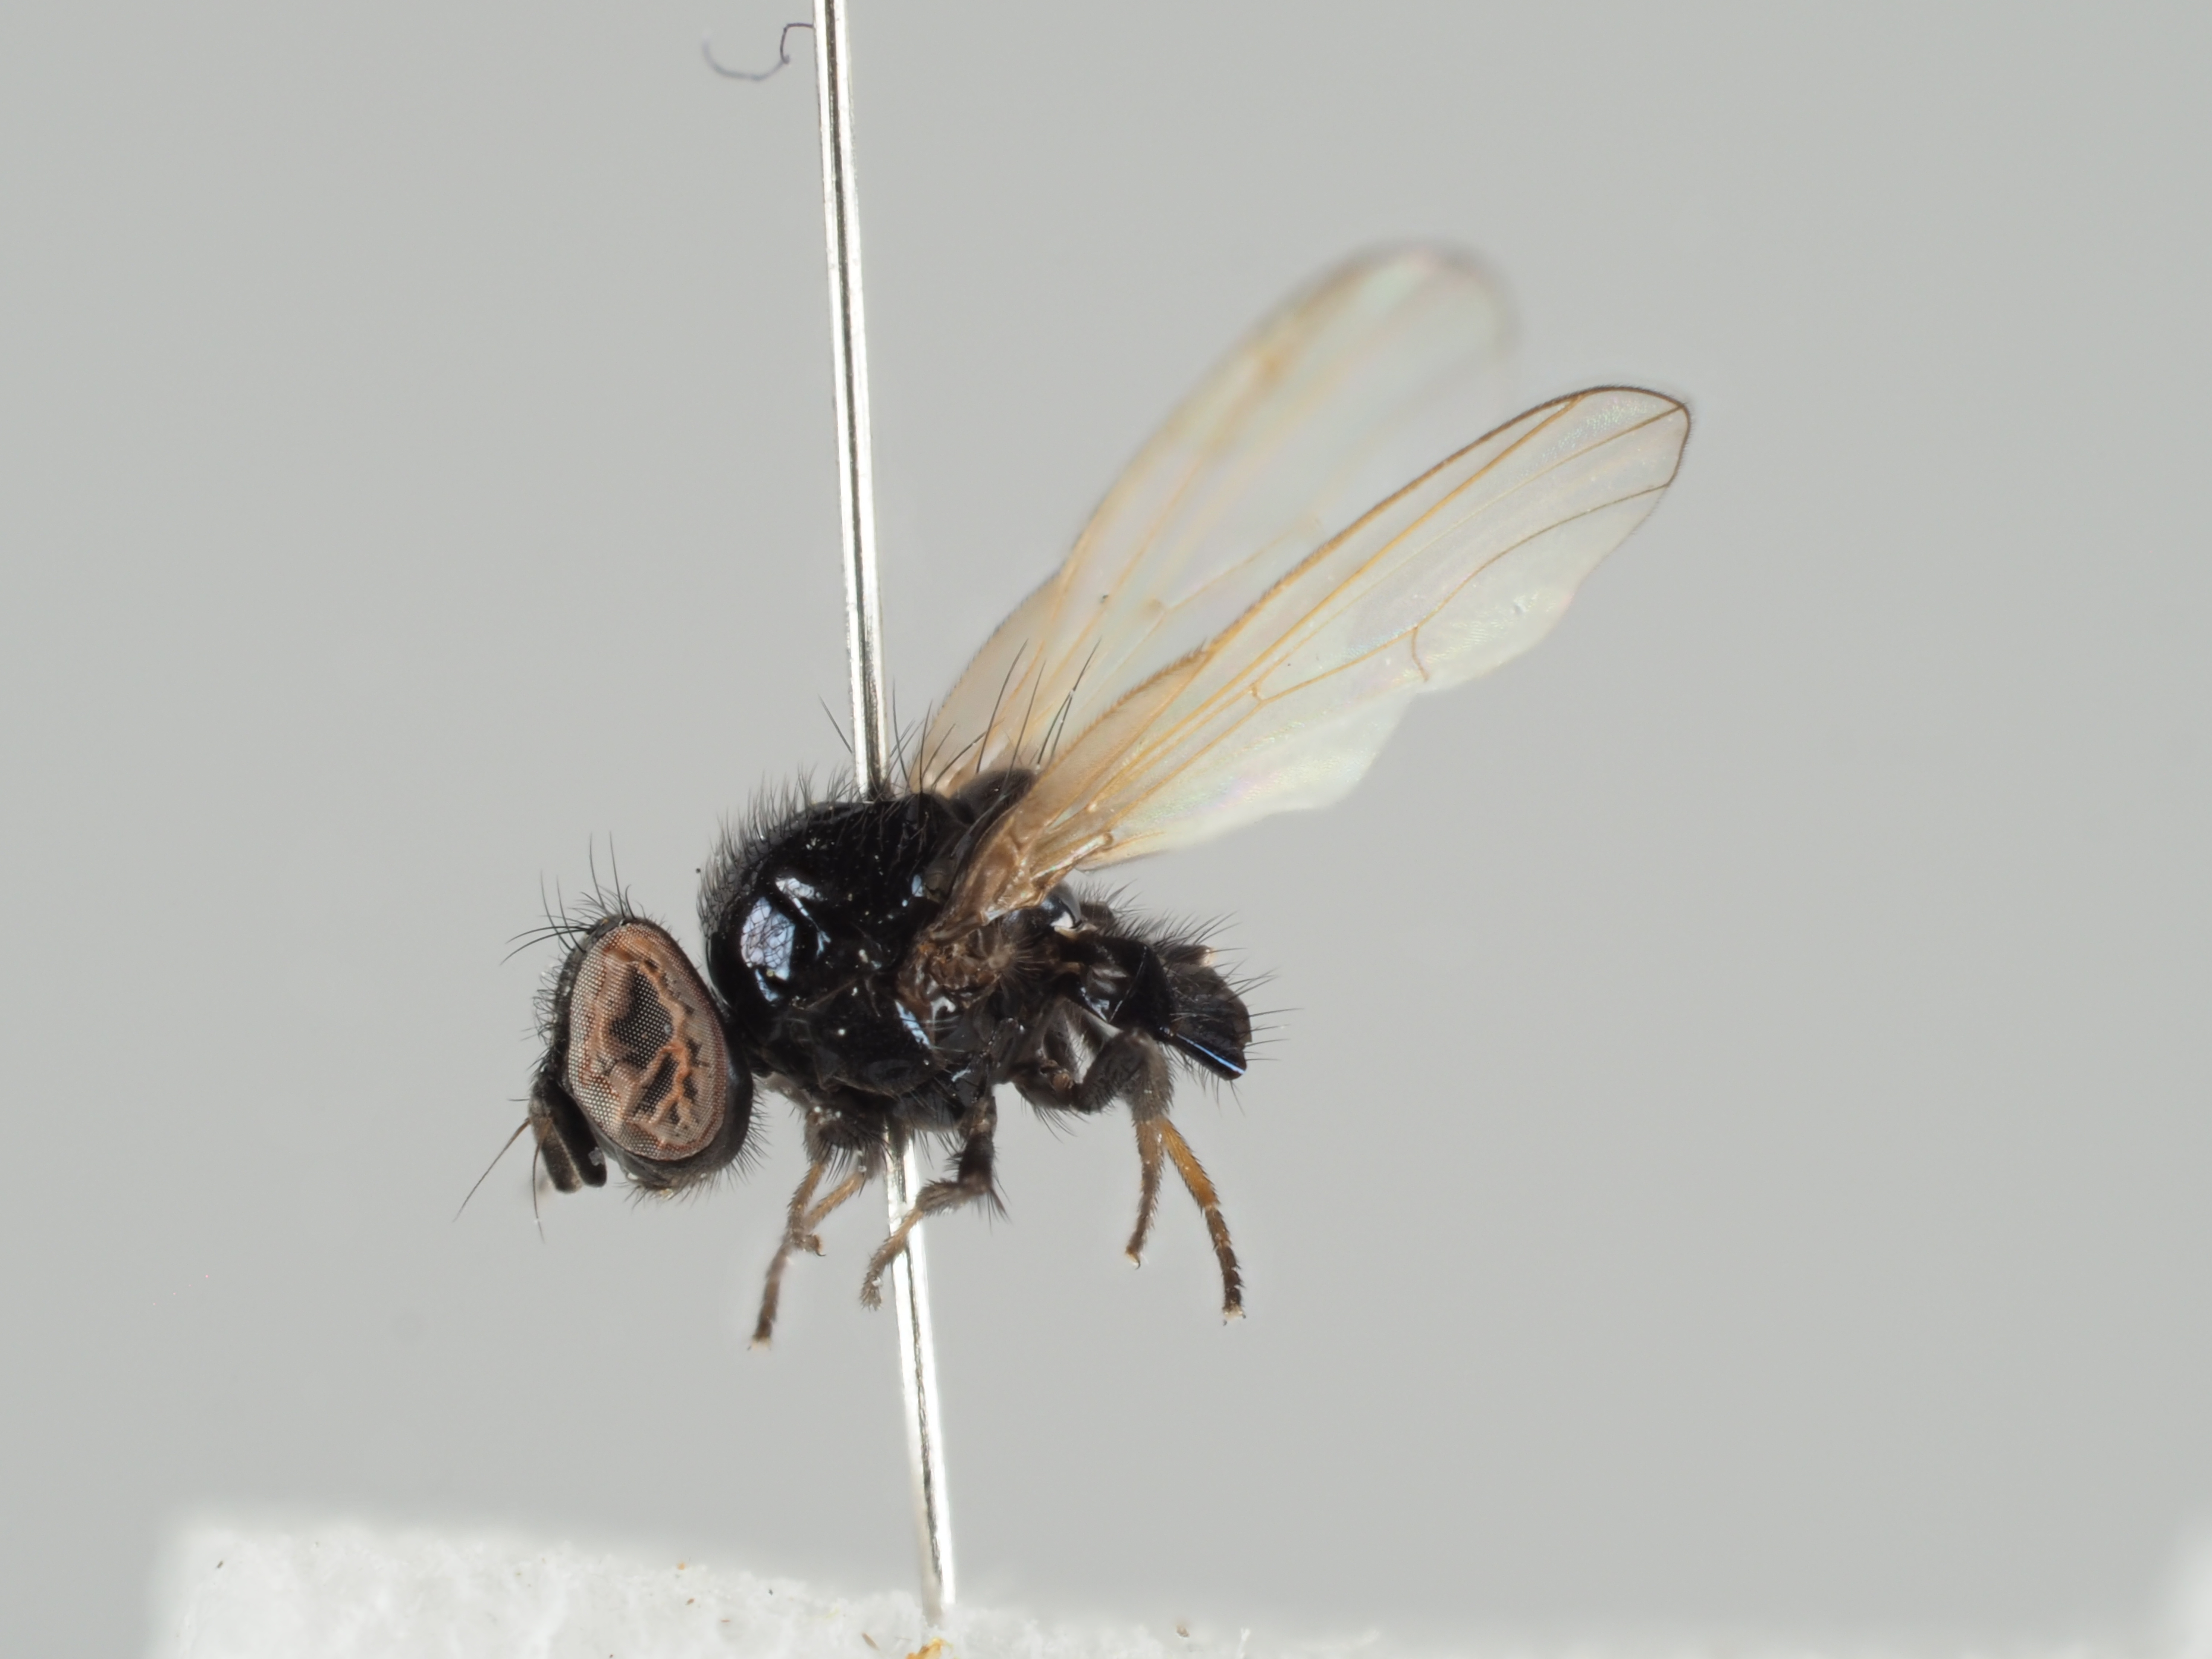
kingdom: Animalia
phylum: Arthropoda
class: Insecta
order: Diptera
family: Lonchaeidae
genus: Lonchaea
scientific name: Lonchaea tarsata
